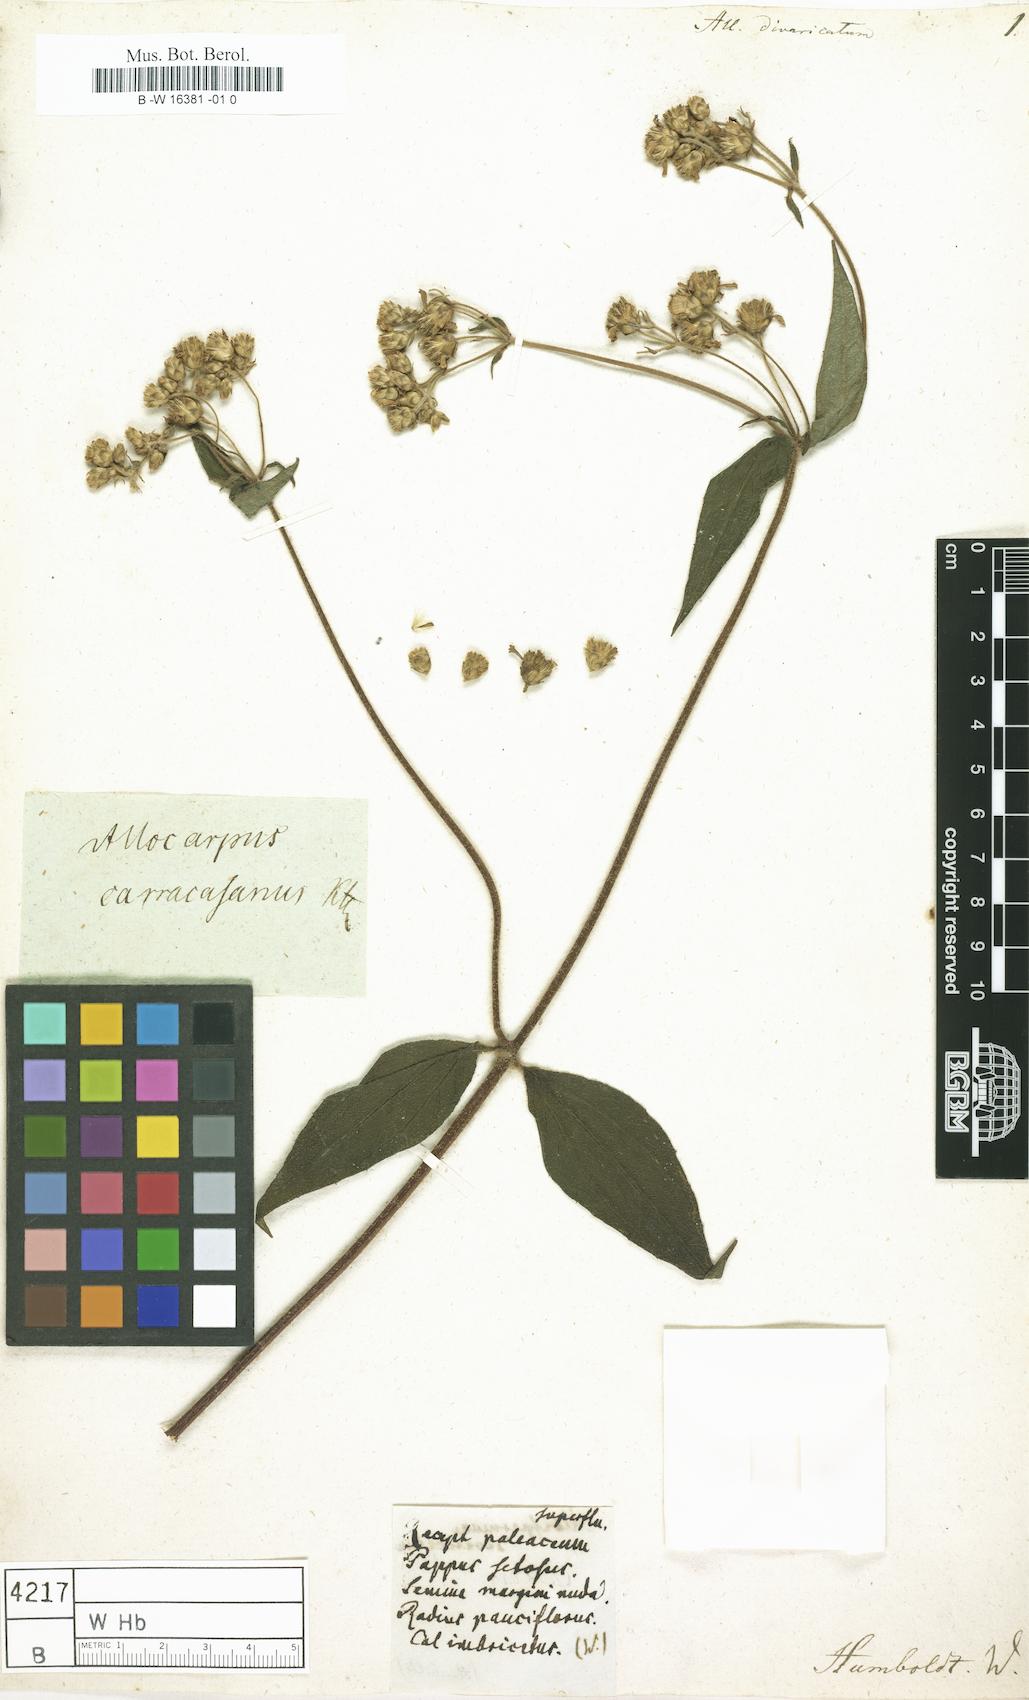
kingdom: Plantae
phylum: Tracheophyta
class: Magnoliopsida
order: Asterales
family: Asteraceae
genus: Alloispermum
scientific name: Alloispermum caracasanum
